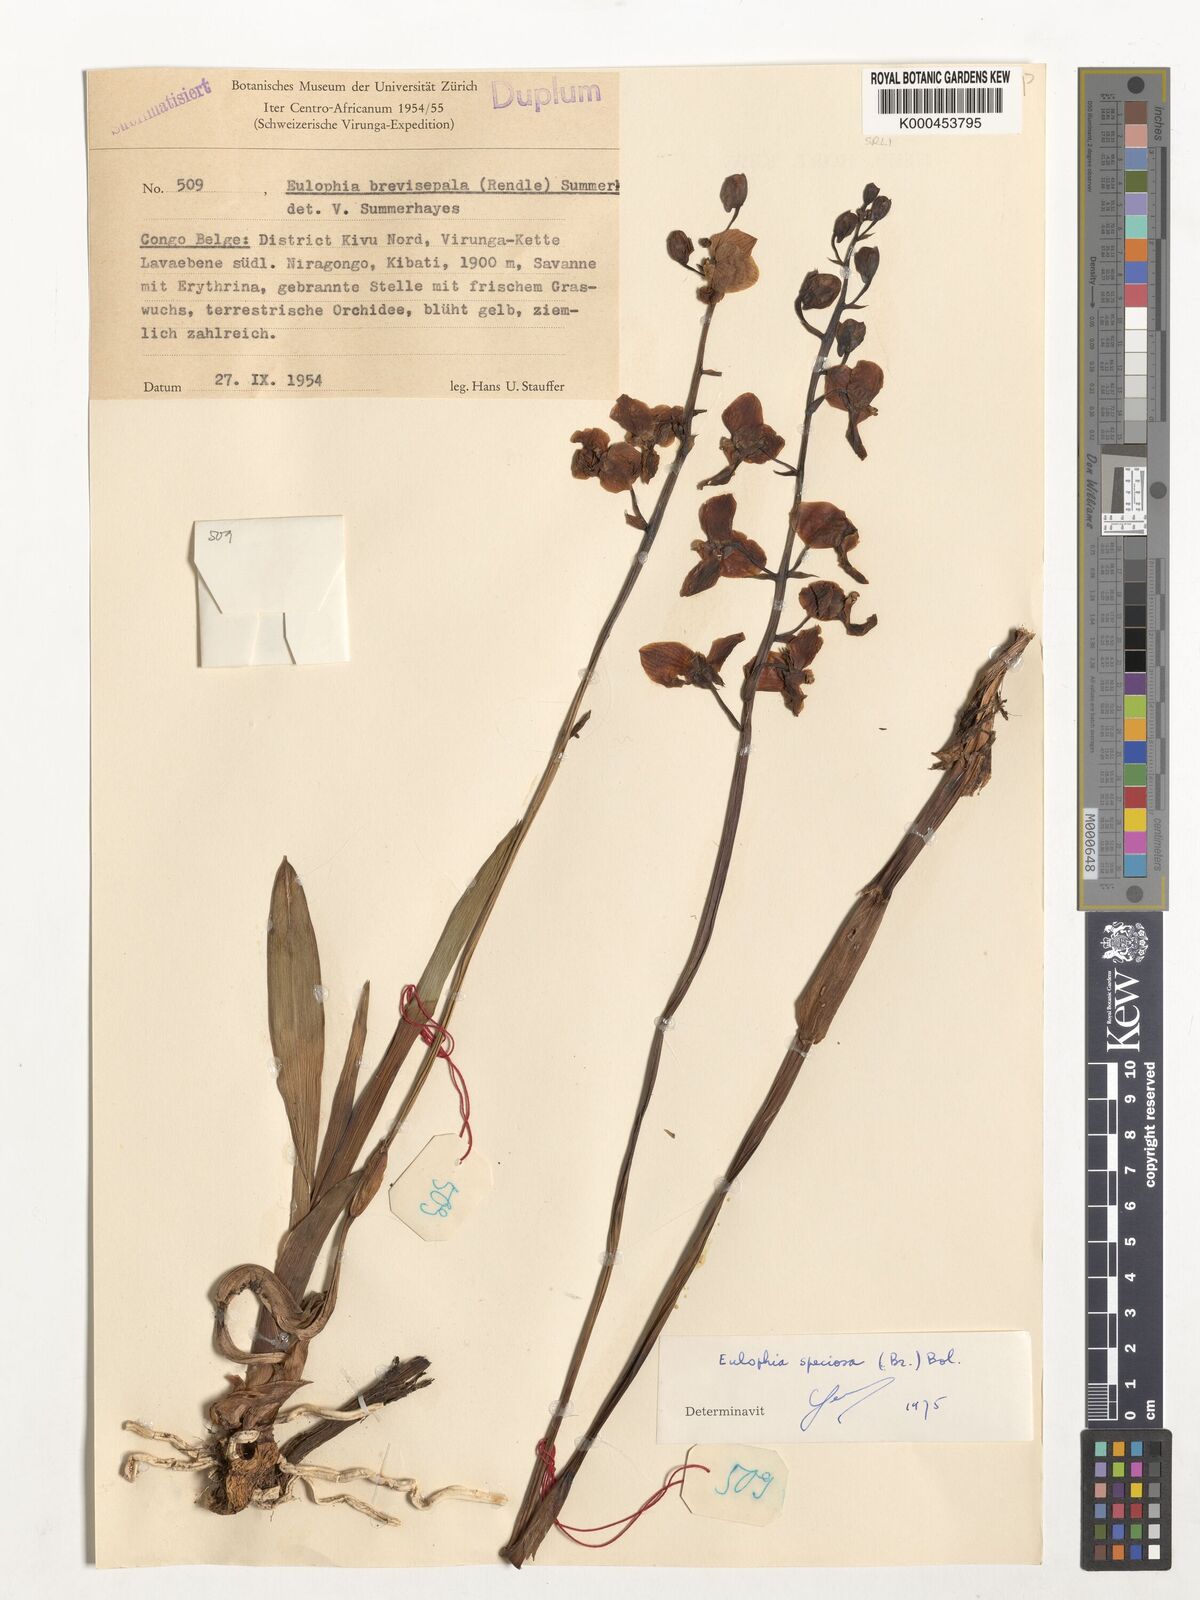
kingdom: Plantae
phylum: Tracheophyta
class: Liliopsida
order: Asparagales
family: Orchidaceae
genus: Eulophia
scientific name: Eulophia speciosa
